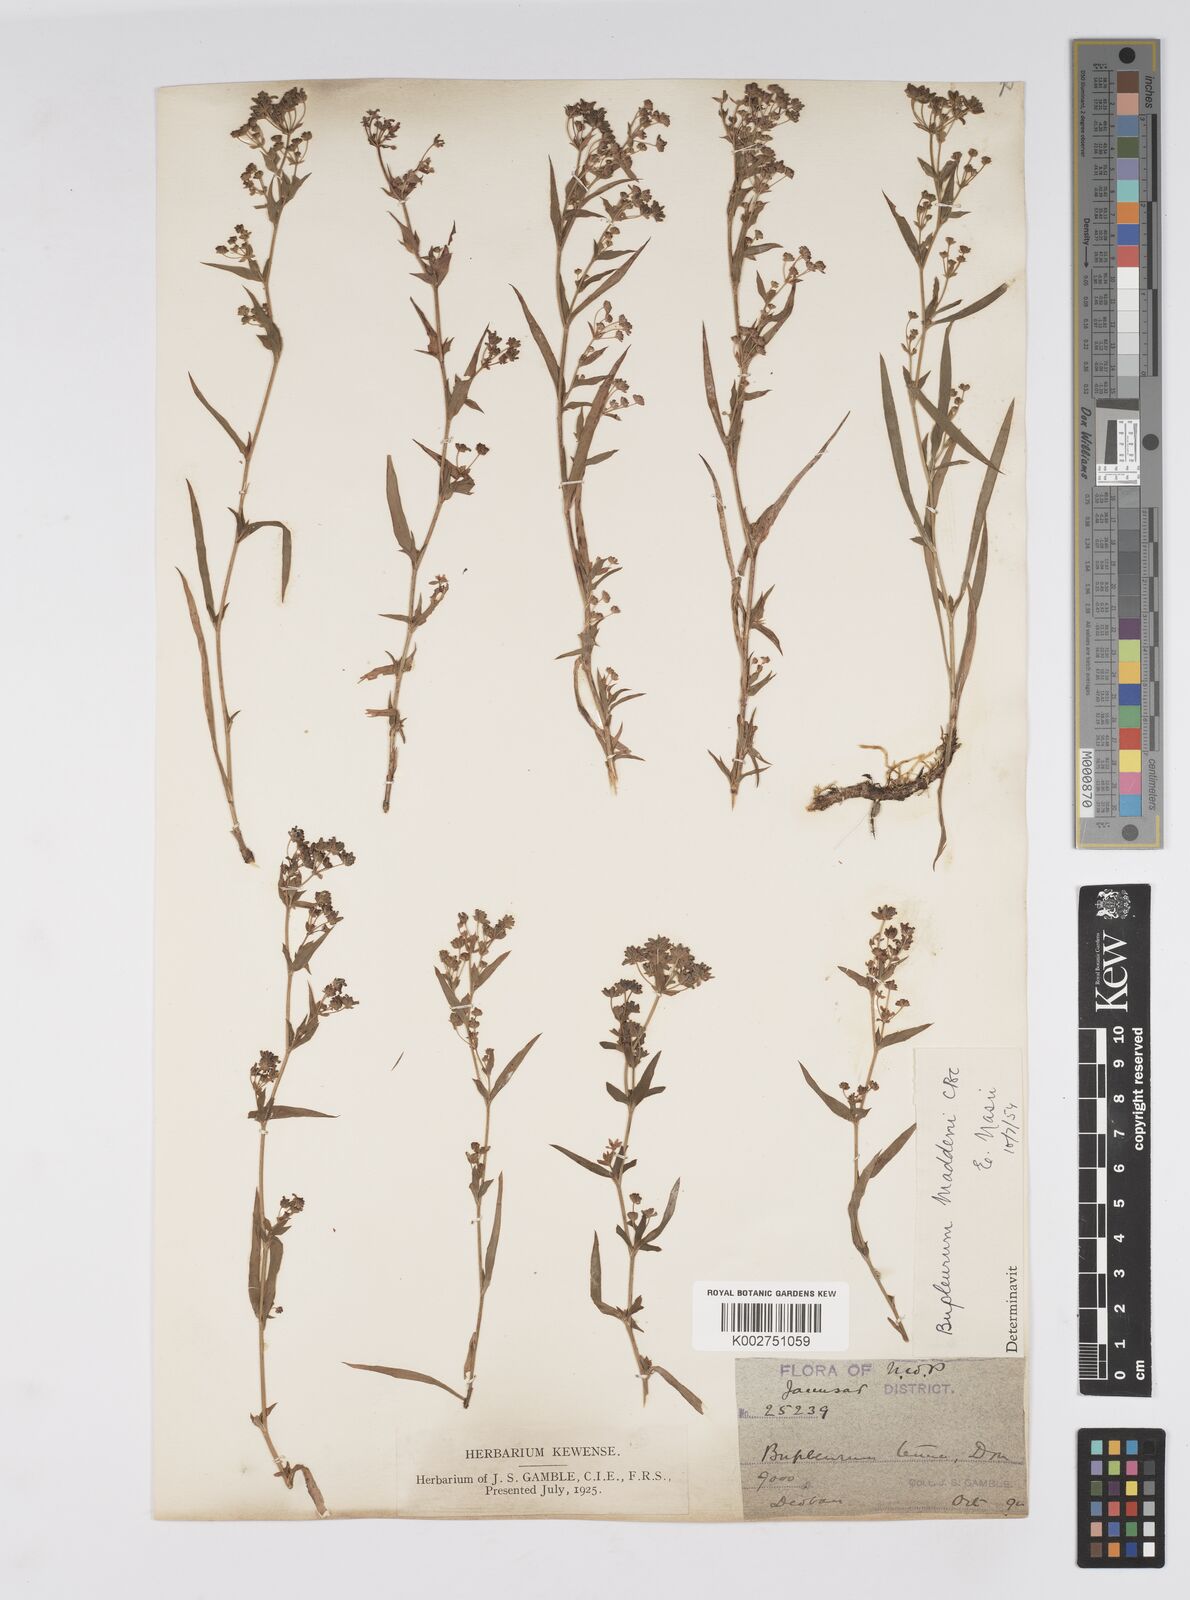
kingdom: Plantae
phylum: Tracheophyta
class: Magnoliopsida
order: Apiales
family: Apiaceae
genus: Bupleurum
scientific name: Bupleurum maddenii
